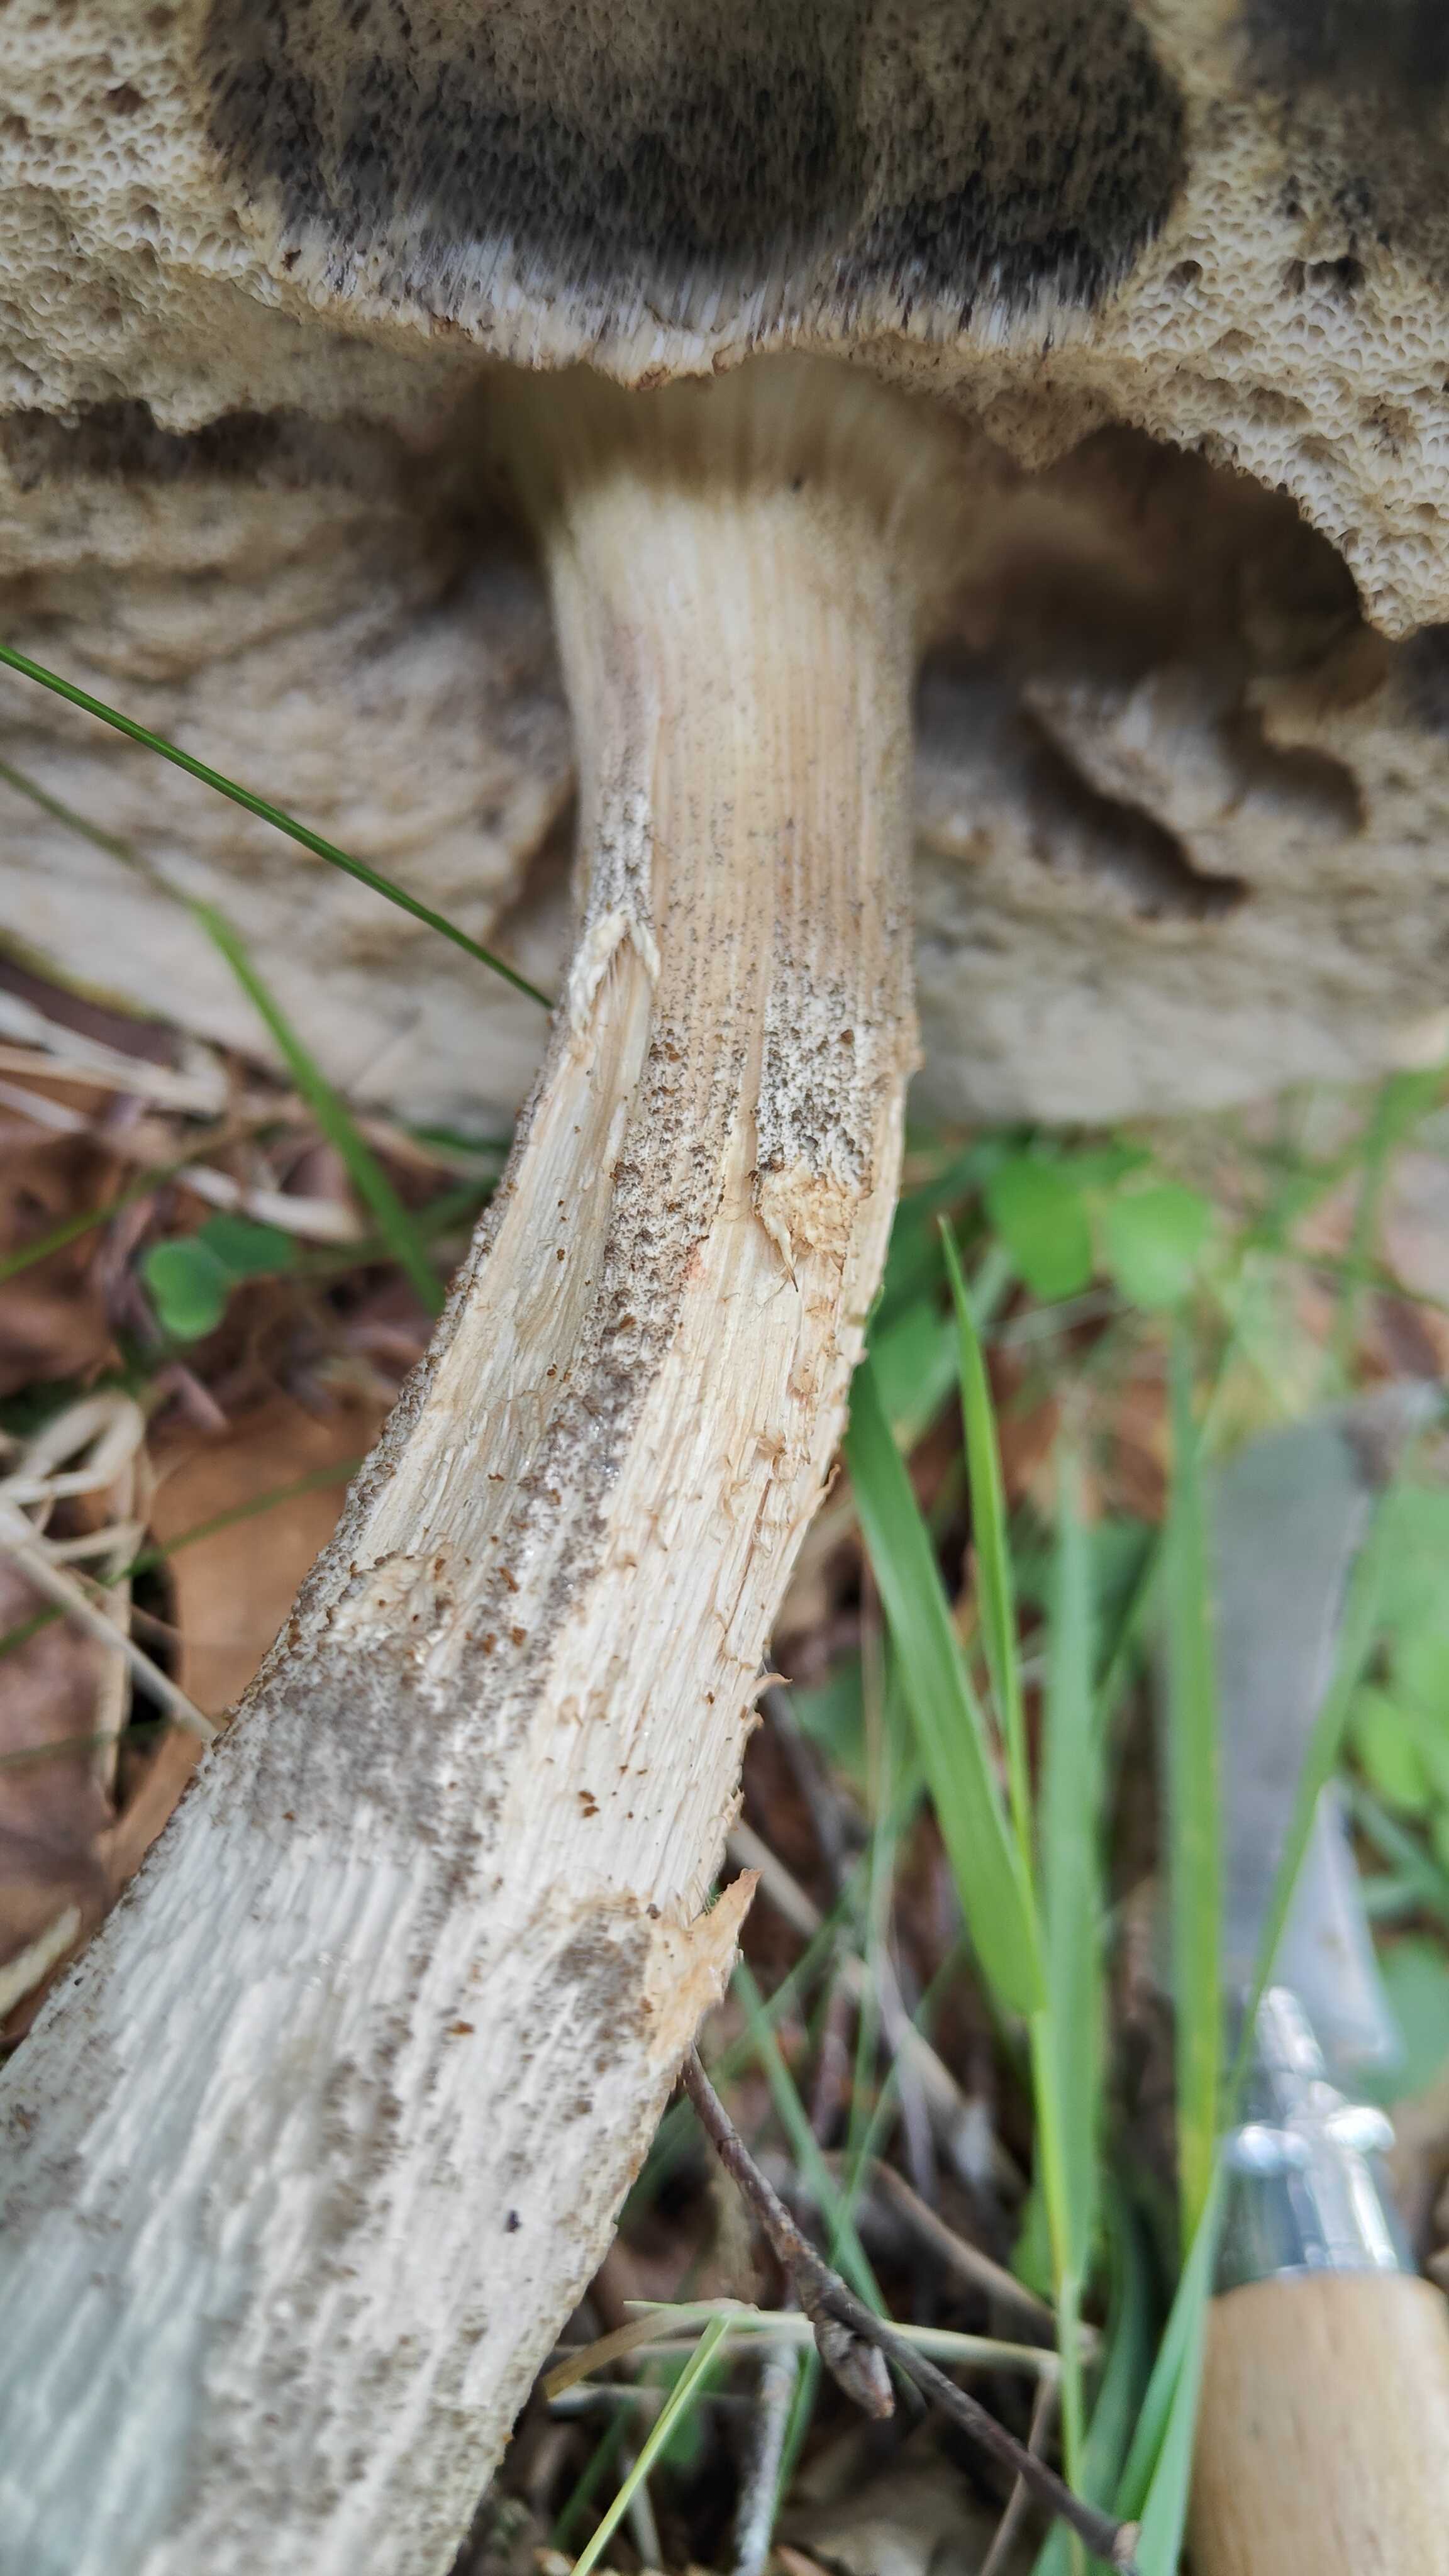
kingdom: Fungi
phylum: Basidiomycota
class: Agaricomycetes
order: Boletales
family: Boletaceae
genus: Leccinum
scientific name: Leccinum scabrum
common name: brun skælrørhat
